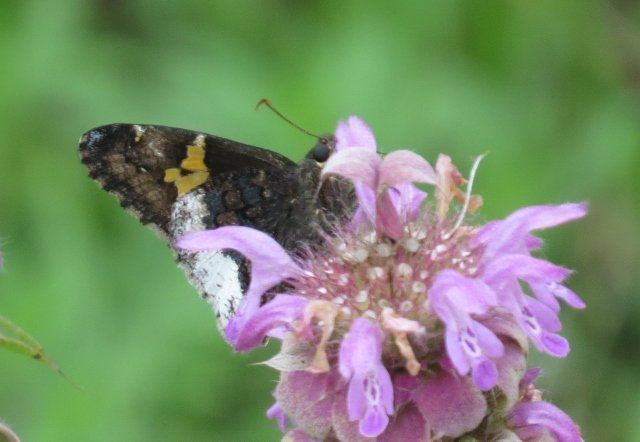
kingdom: Animalia
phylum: Arthropoda
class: Insecta
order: Lepidoptera
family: Hesperiidae
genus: Achalarus
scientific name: Achalarus lyciades
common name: Hoary Edge
